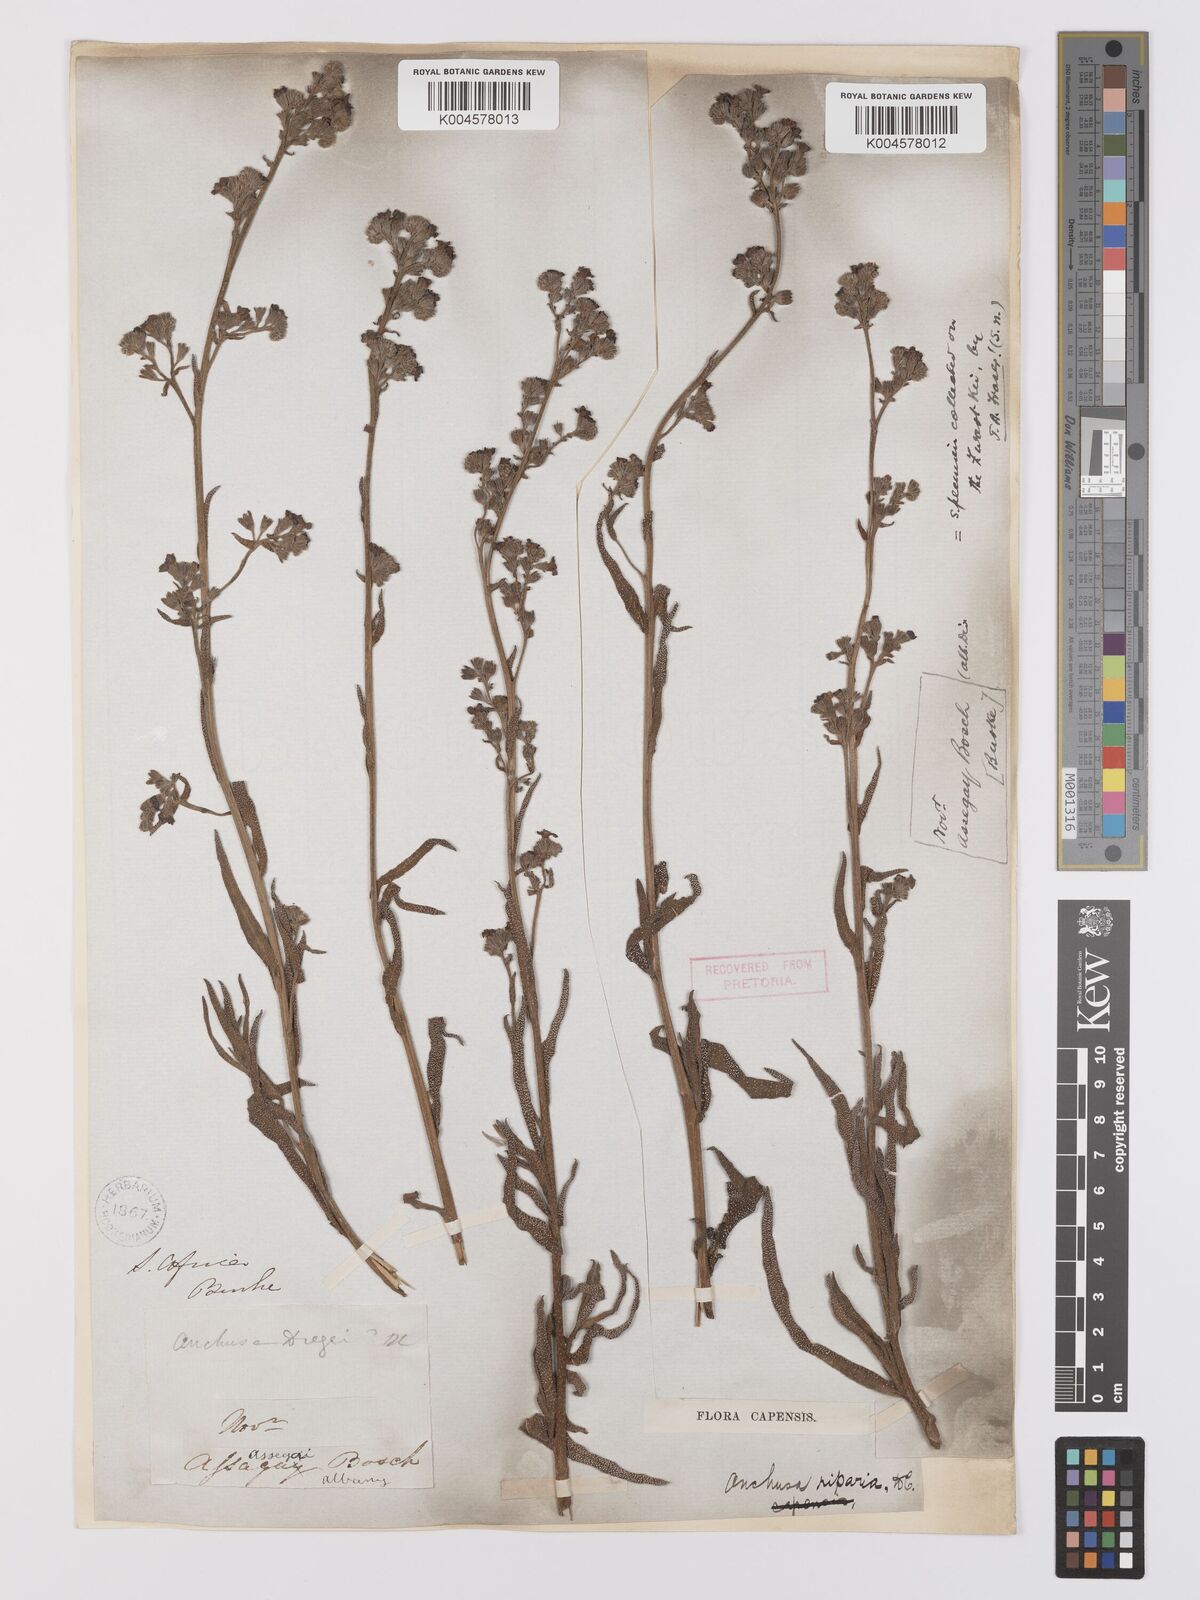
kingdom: Plantae
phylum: Tracheophyta
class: Magnoliopsida
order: Boraginales
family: Boraginaceae
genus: Anchusa
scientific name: Anchusa capensis
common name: Cape bugloss
